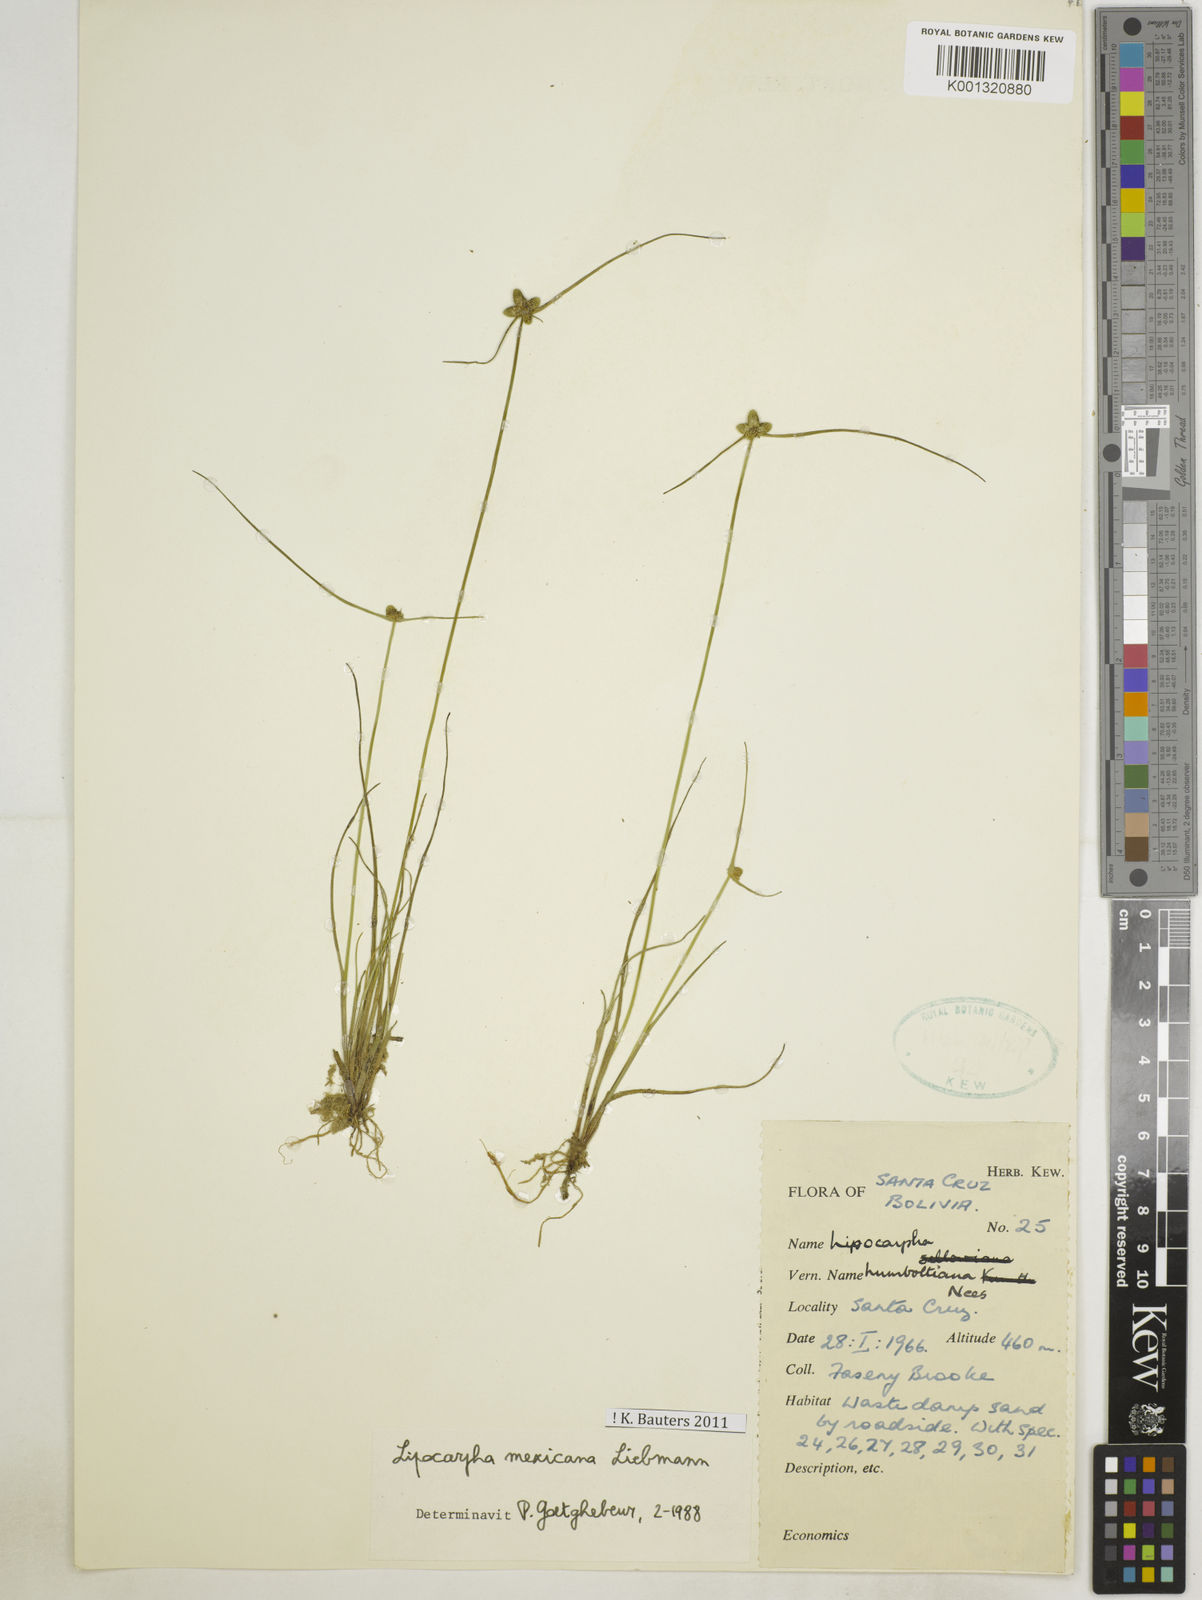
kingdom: Plantae
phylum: Tracheophyta
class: Liliopsida
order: Poales
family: Cyperaceae
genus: Cyperus
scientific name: Cyperus digitatus
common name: Finger flatsedge
